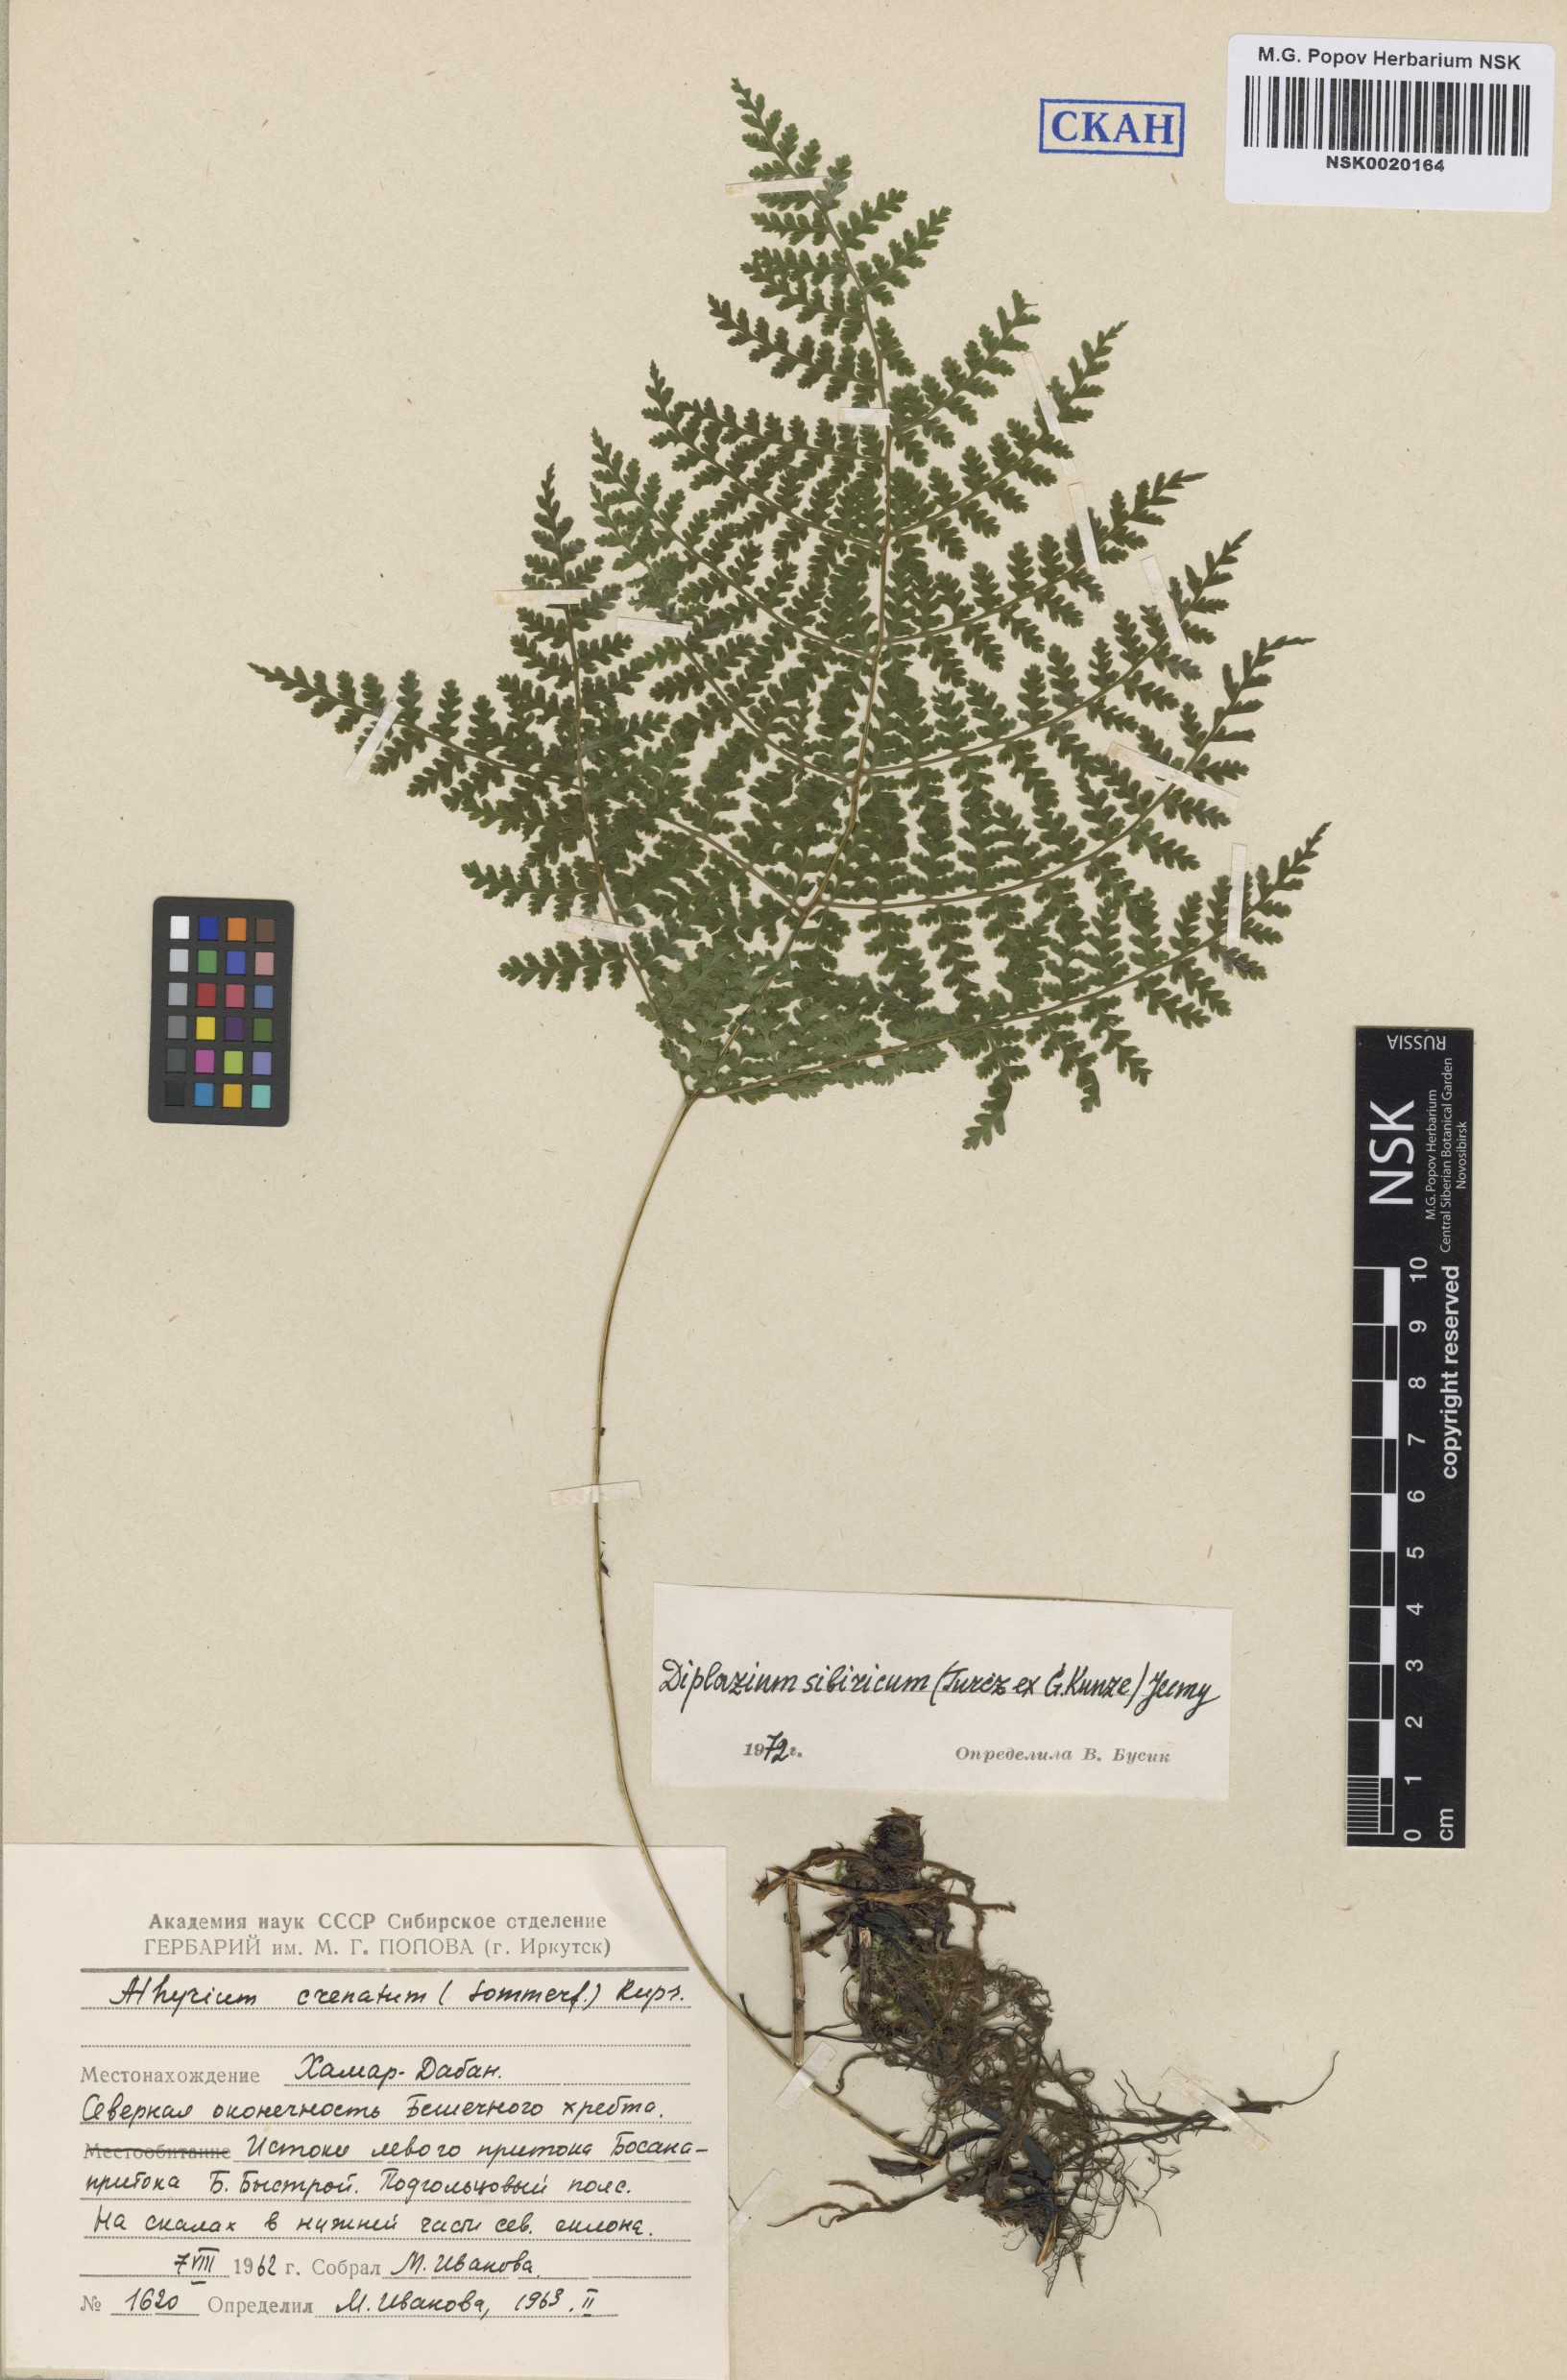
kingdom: Plantae
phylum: Tracheophyta
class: Polypodiopsida
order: Polypodiales
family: Athyriaceae
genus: Diplazium
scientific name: Diplazium sibiricum
